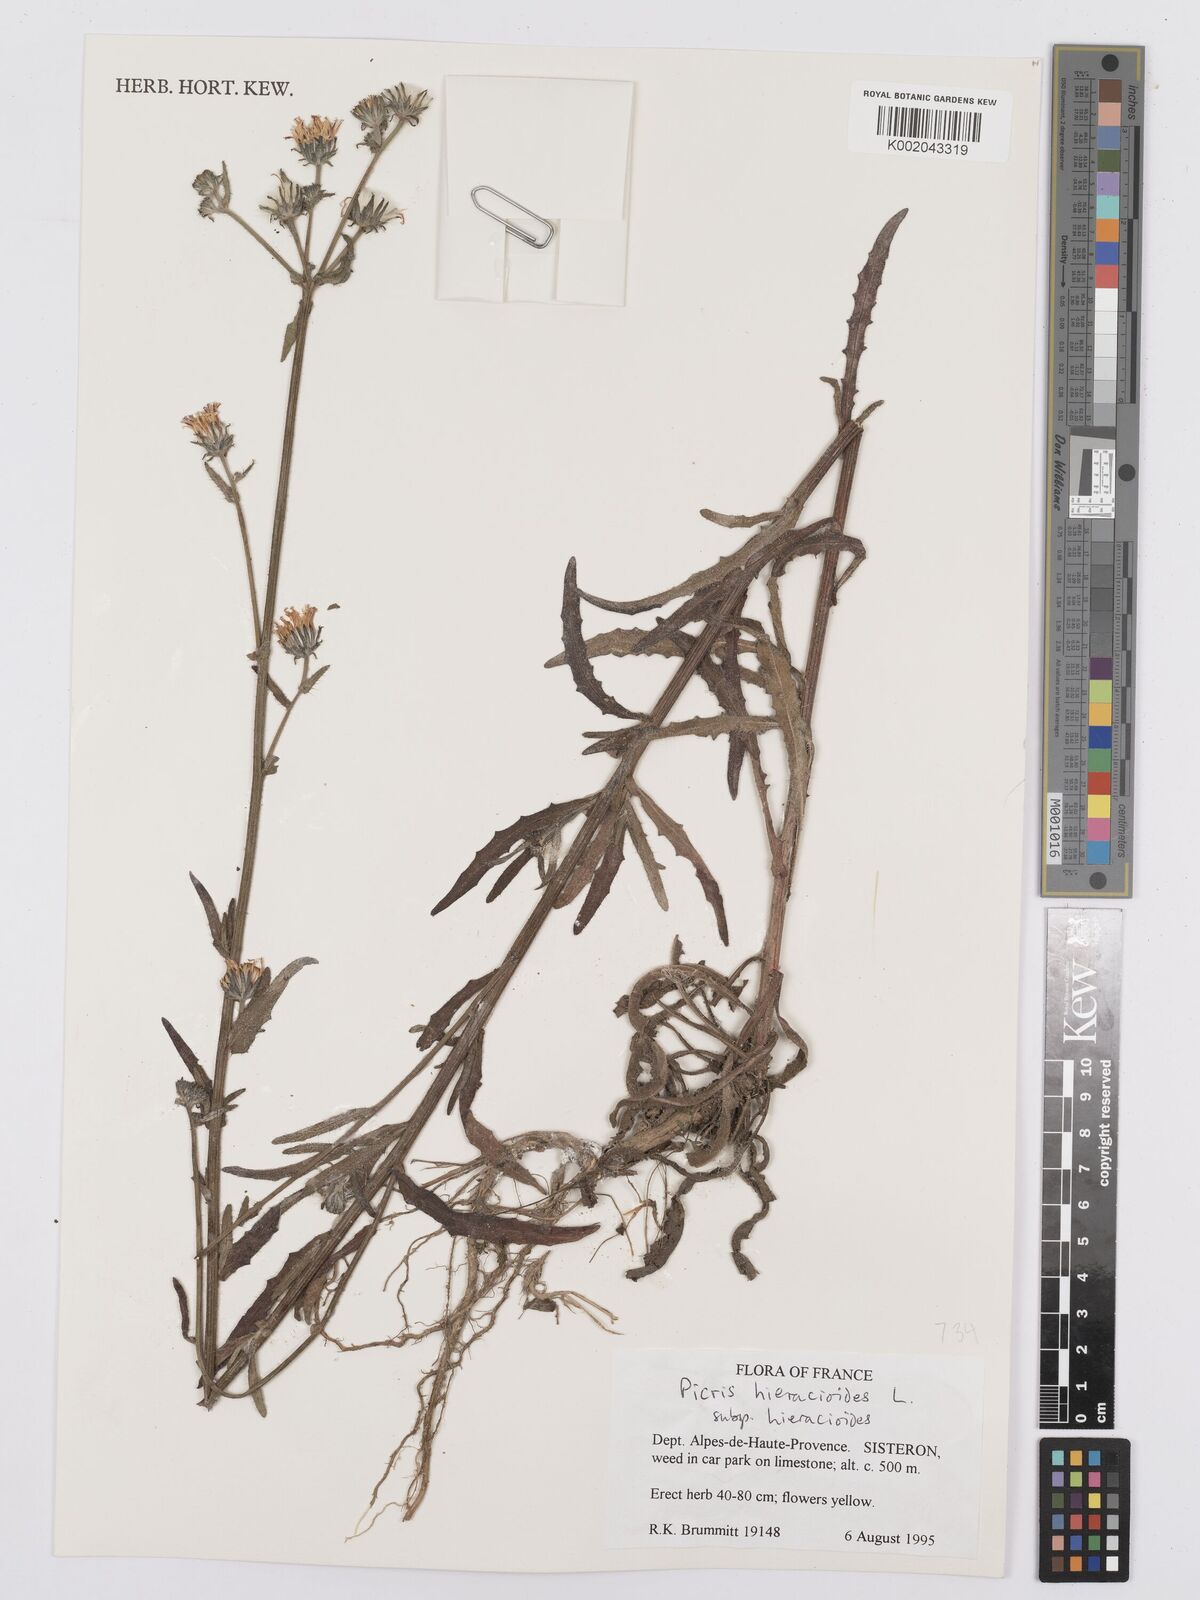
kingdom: Plantae
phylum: Tracheophyta
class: Magnoliopsida
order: Asterales
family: Asteraceae
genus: Picris
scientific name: Picris hieracioides
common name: Hawkweed oxtongue
